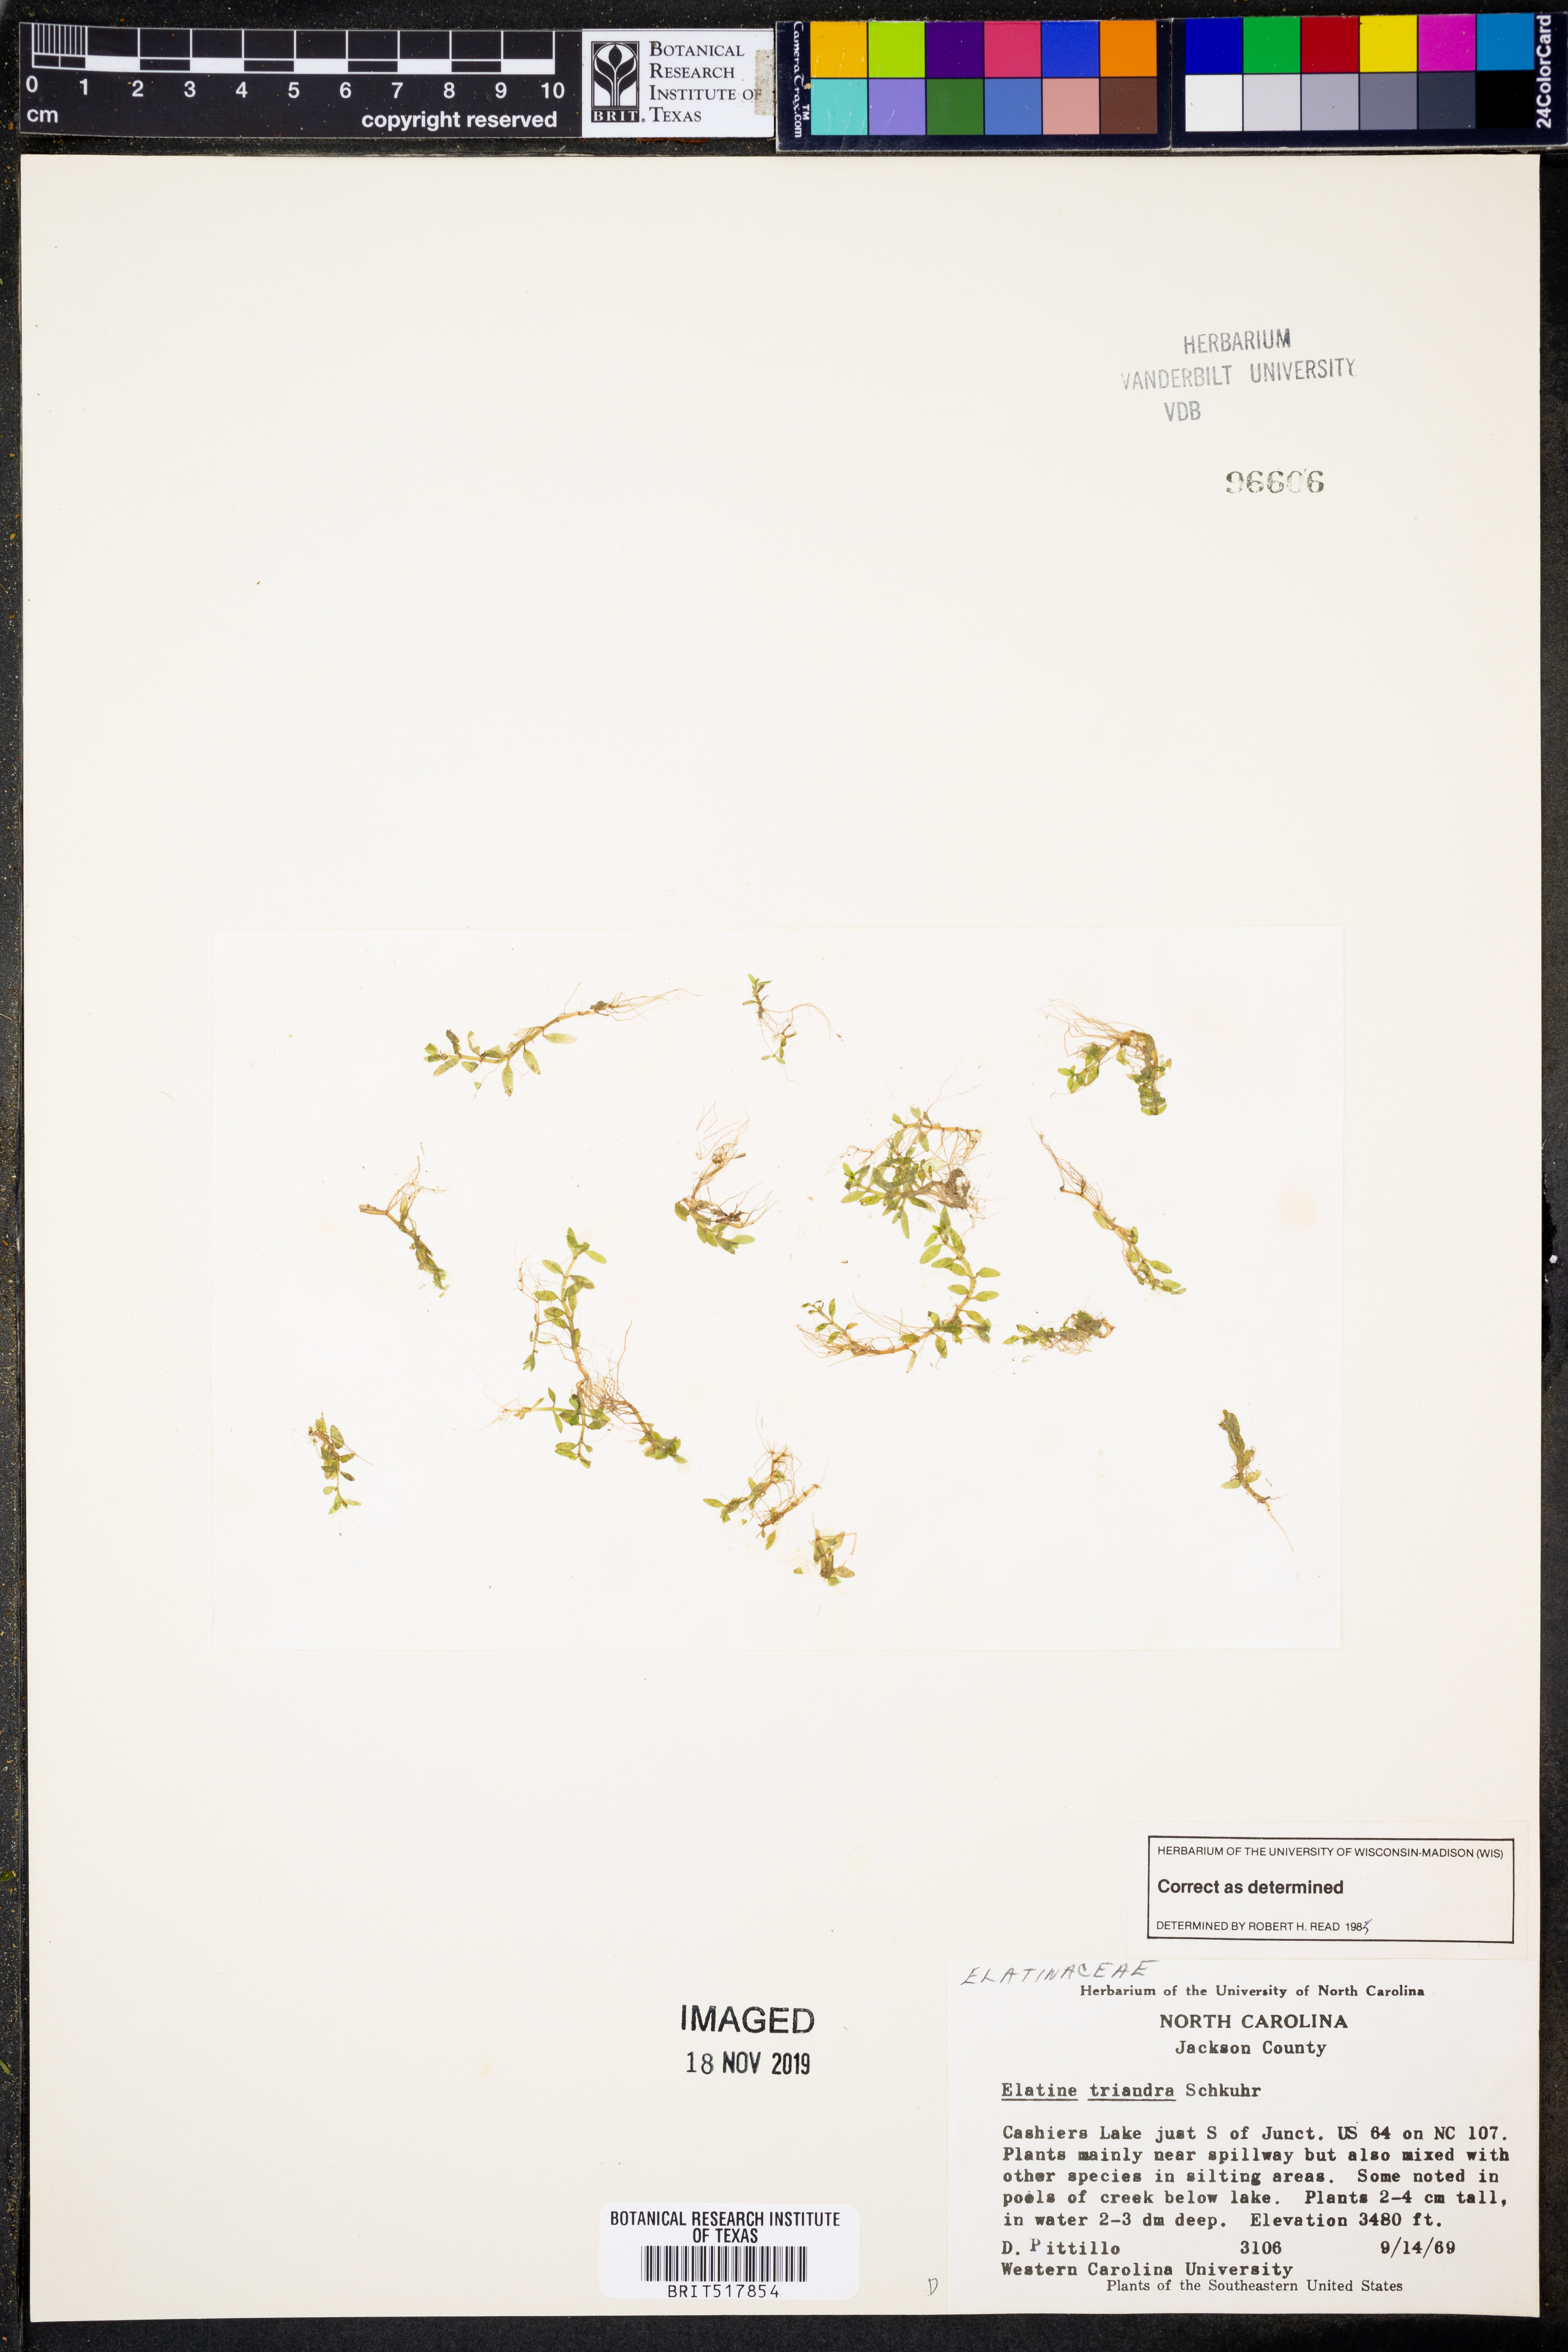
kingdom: Plantae
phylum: Tracheophyta
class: Magnoliopsida
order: Malpighiales
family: Elatinaceae
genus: Elatine
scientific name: Elatine triandra
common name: Three-stamened waterwort
